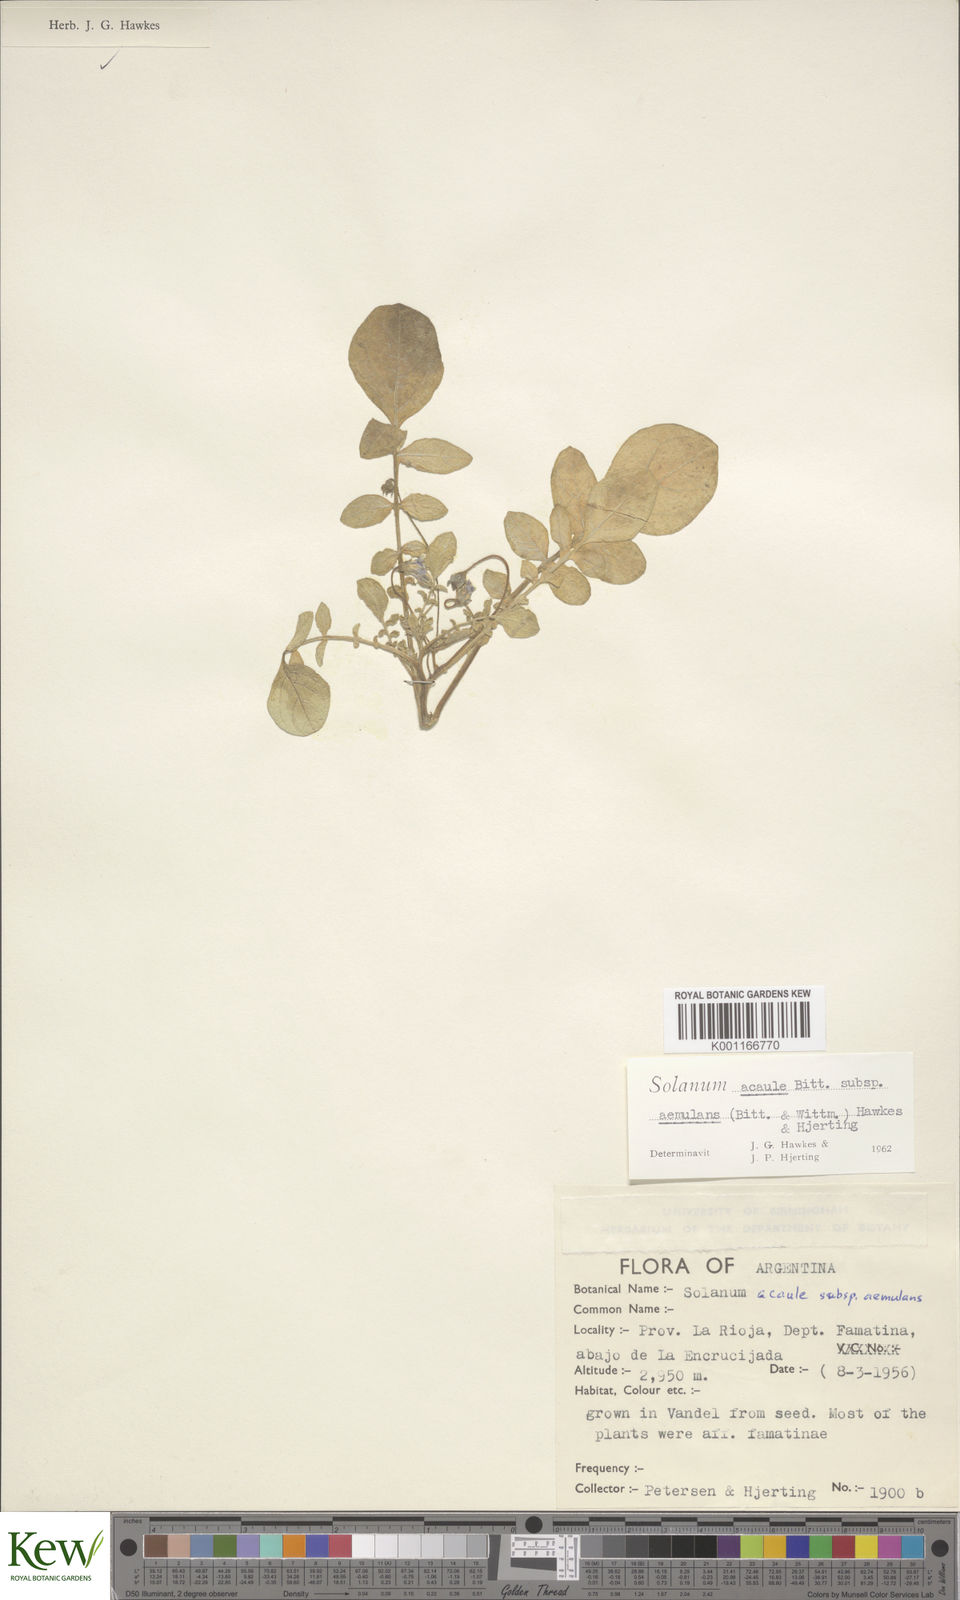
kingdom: Plantae
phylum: Tracheophyta
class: Magnoliopsida
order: Solanales
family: Solanaceae
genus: Solanum
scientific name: Solanum aemulans
